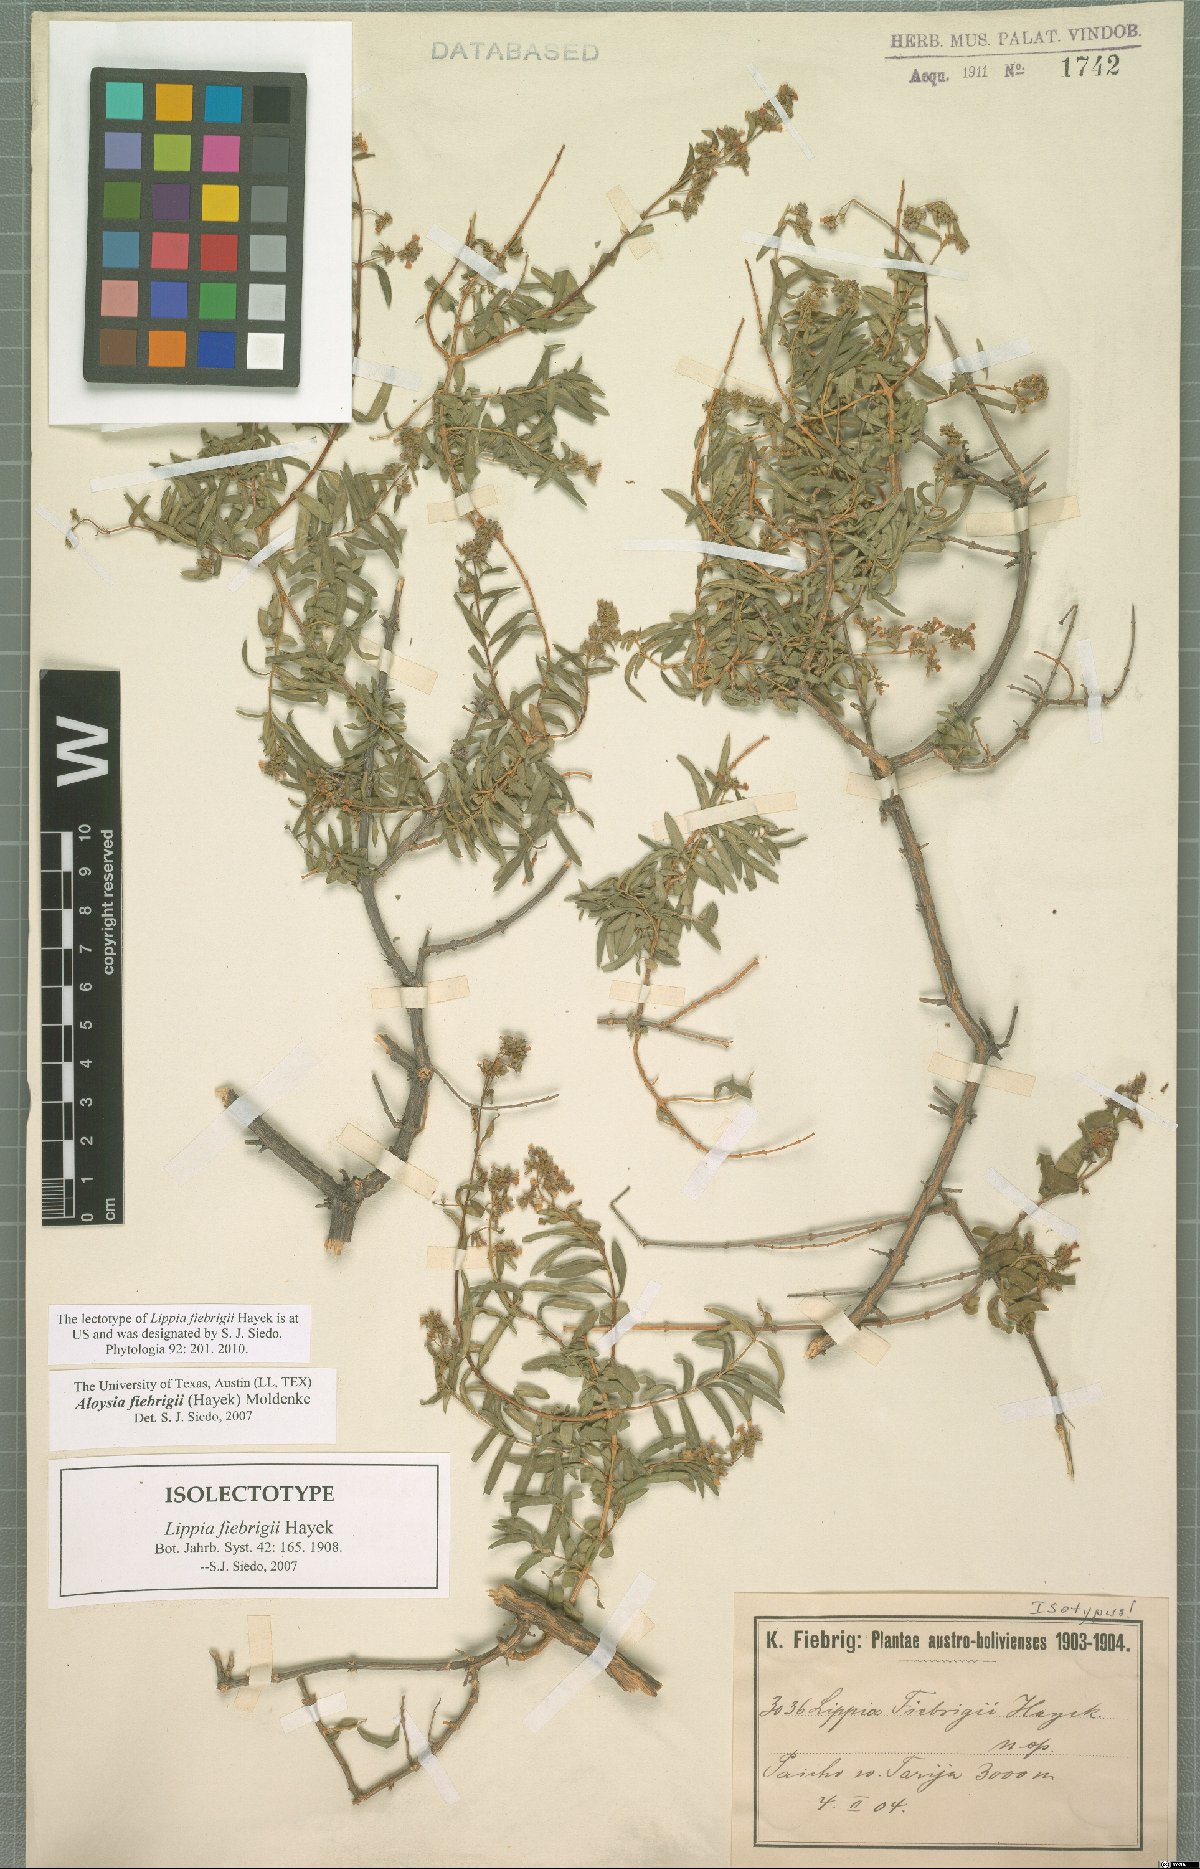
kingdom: Plantae
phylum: Tracheophyta
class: Magnoliopsida
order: Lamiales
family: Verbenaceae
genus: Aloysia
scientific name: Aloysia fiebrigii
